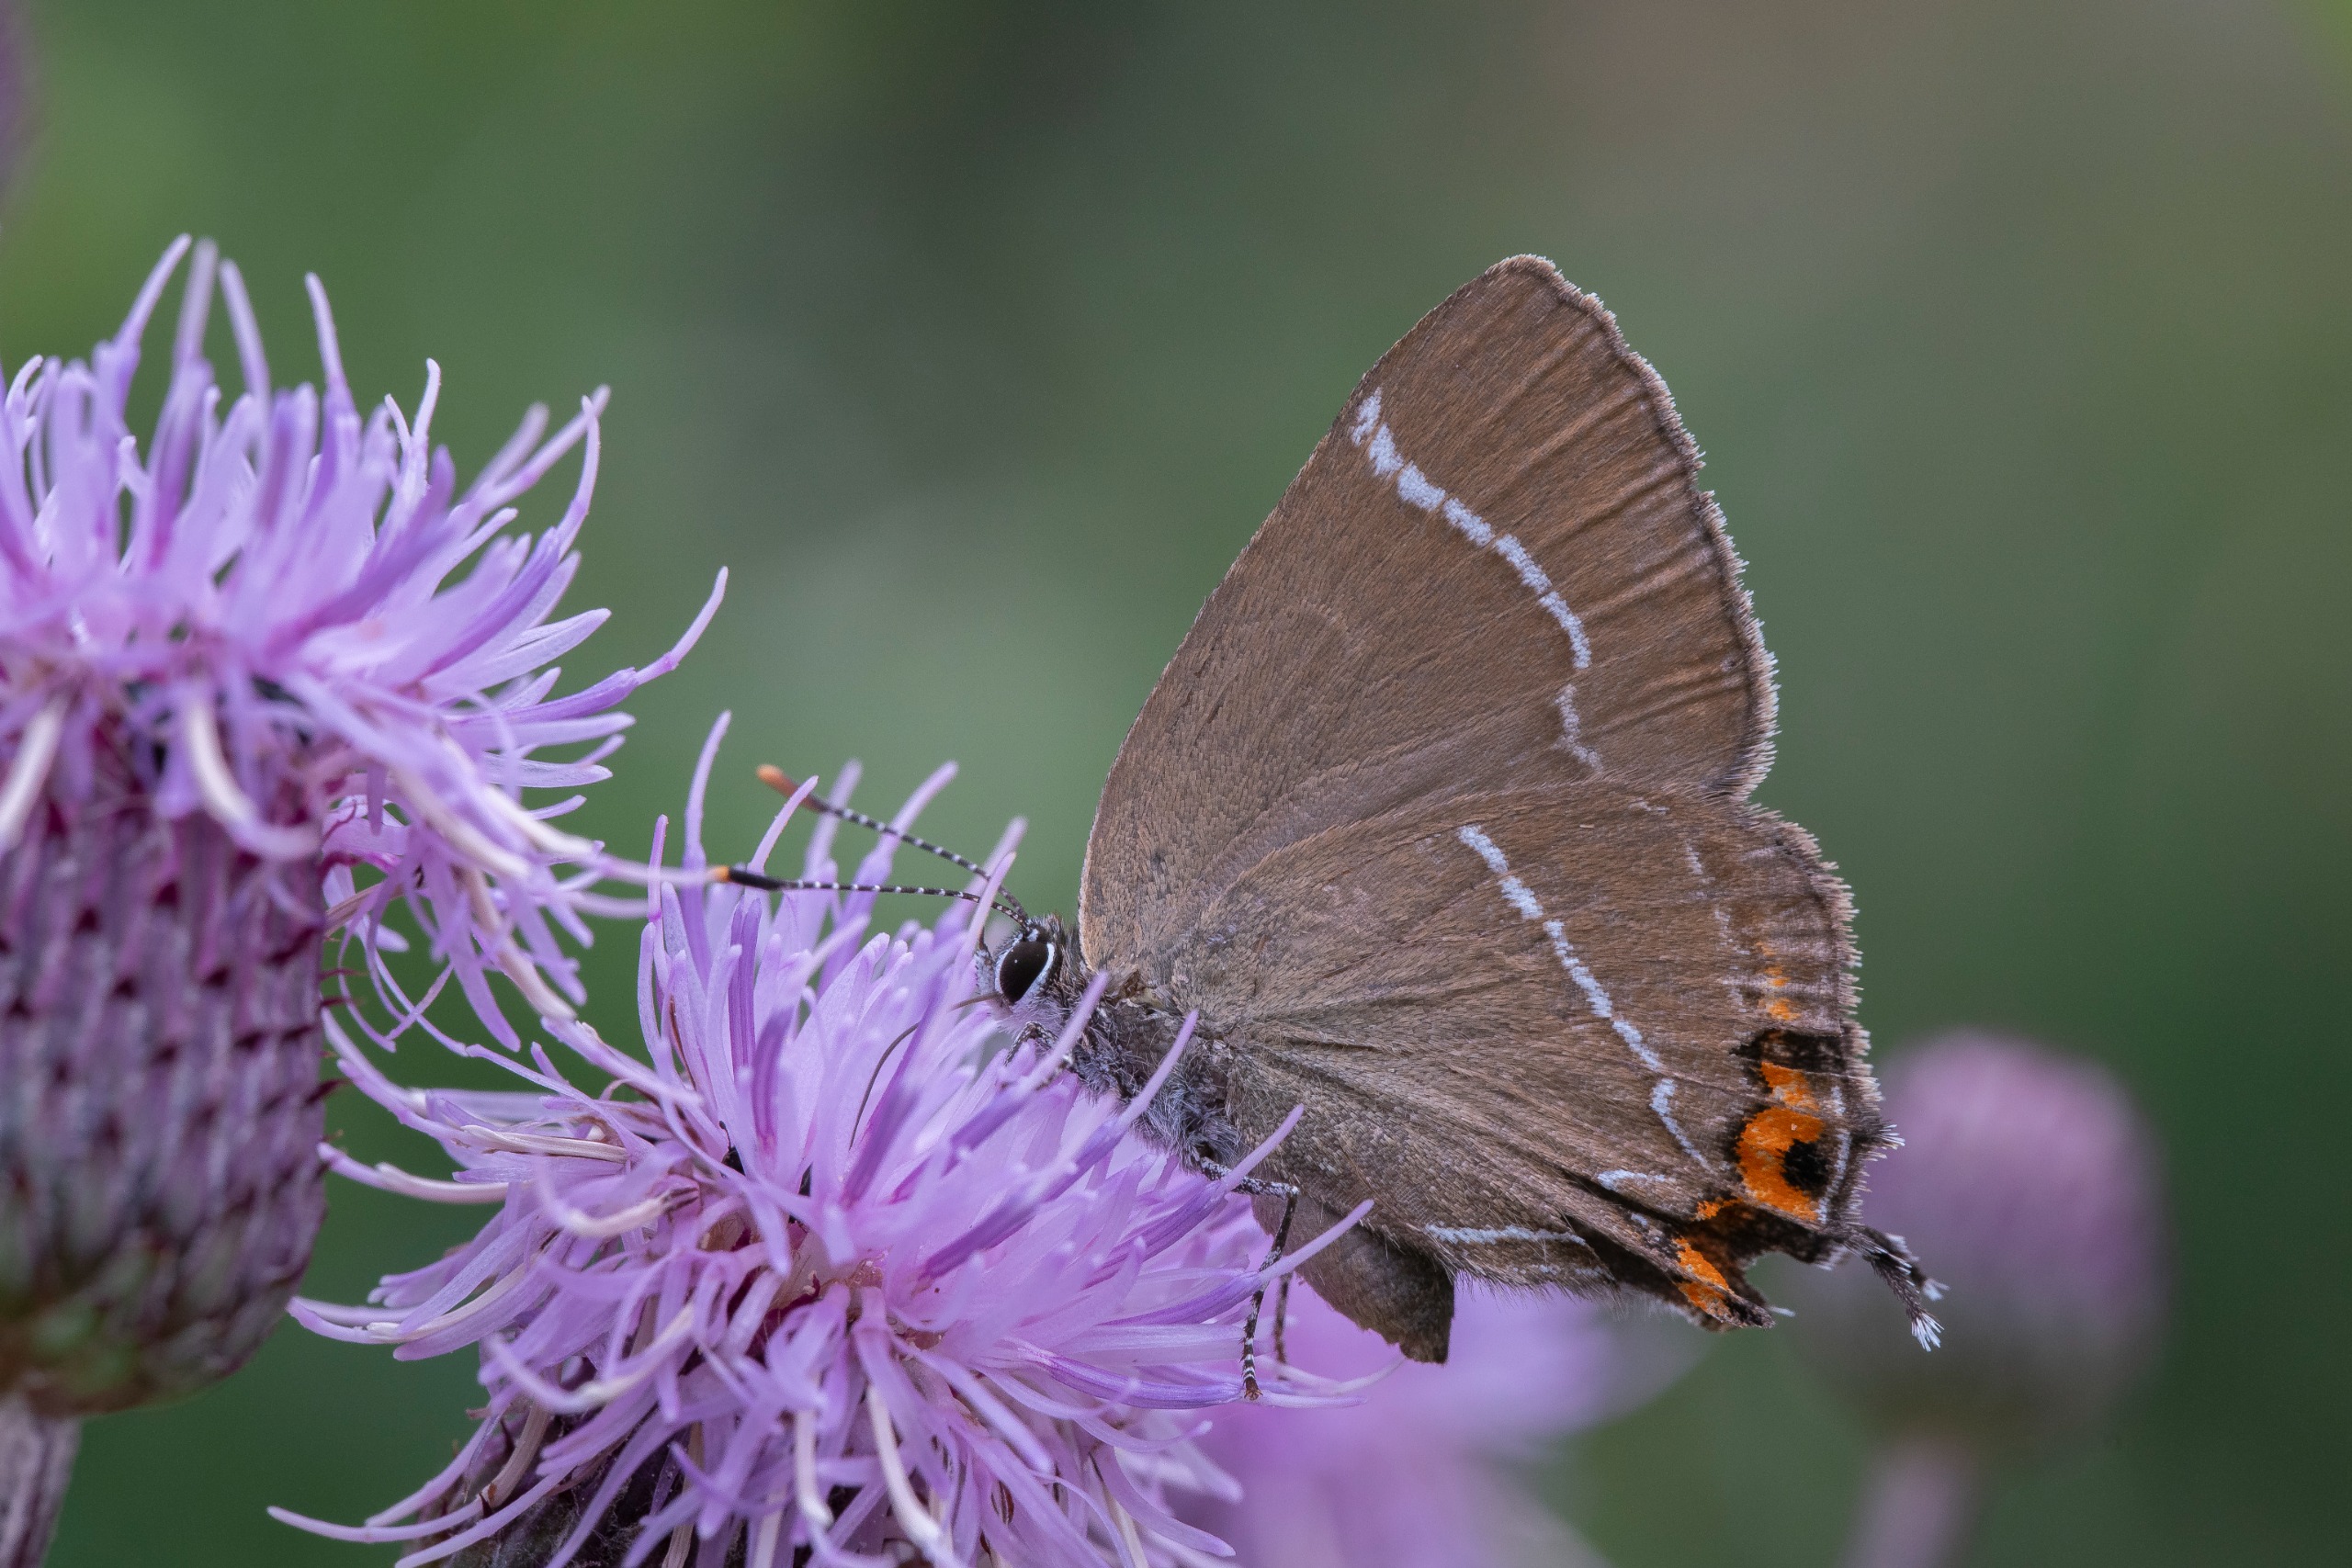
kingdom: Animalia
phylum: Arthropoda
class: Insecta
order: Lepidoptera
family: Lycaenidae
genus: Satyrium
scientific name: Satyrium w-album
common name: Det hvide W
